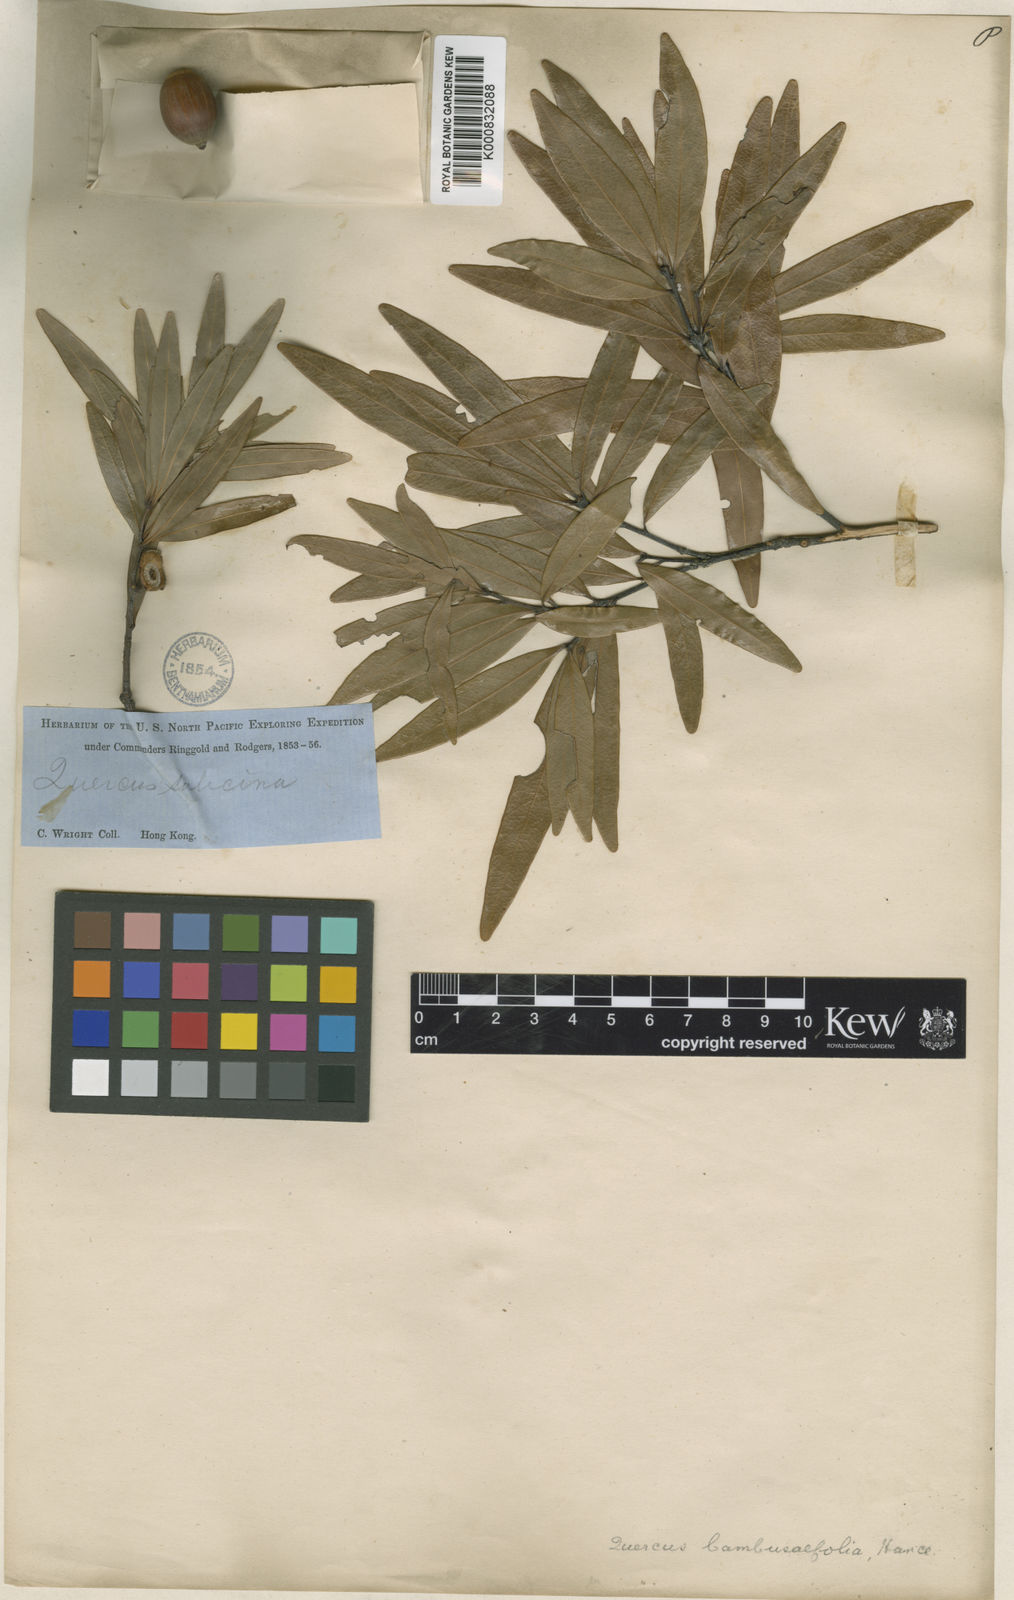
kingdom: Plantae
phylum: Tracheophyta
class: Magnoliopsida
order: Fagales
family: Fagaceae
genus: Quercus
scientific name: Quercus bambusifolia
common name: Bamboo-leaf oak
